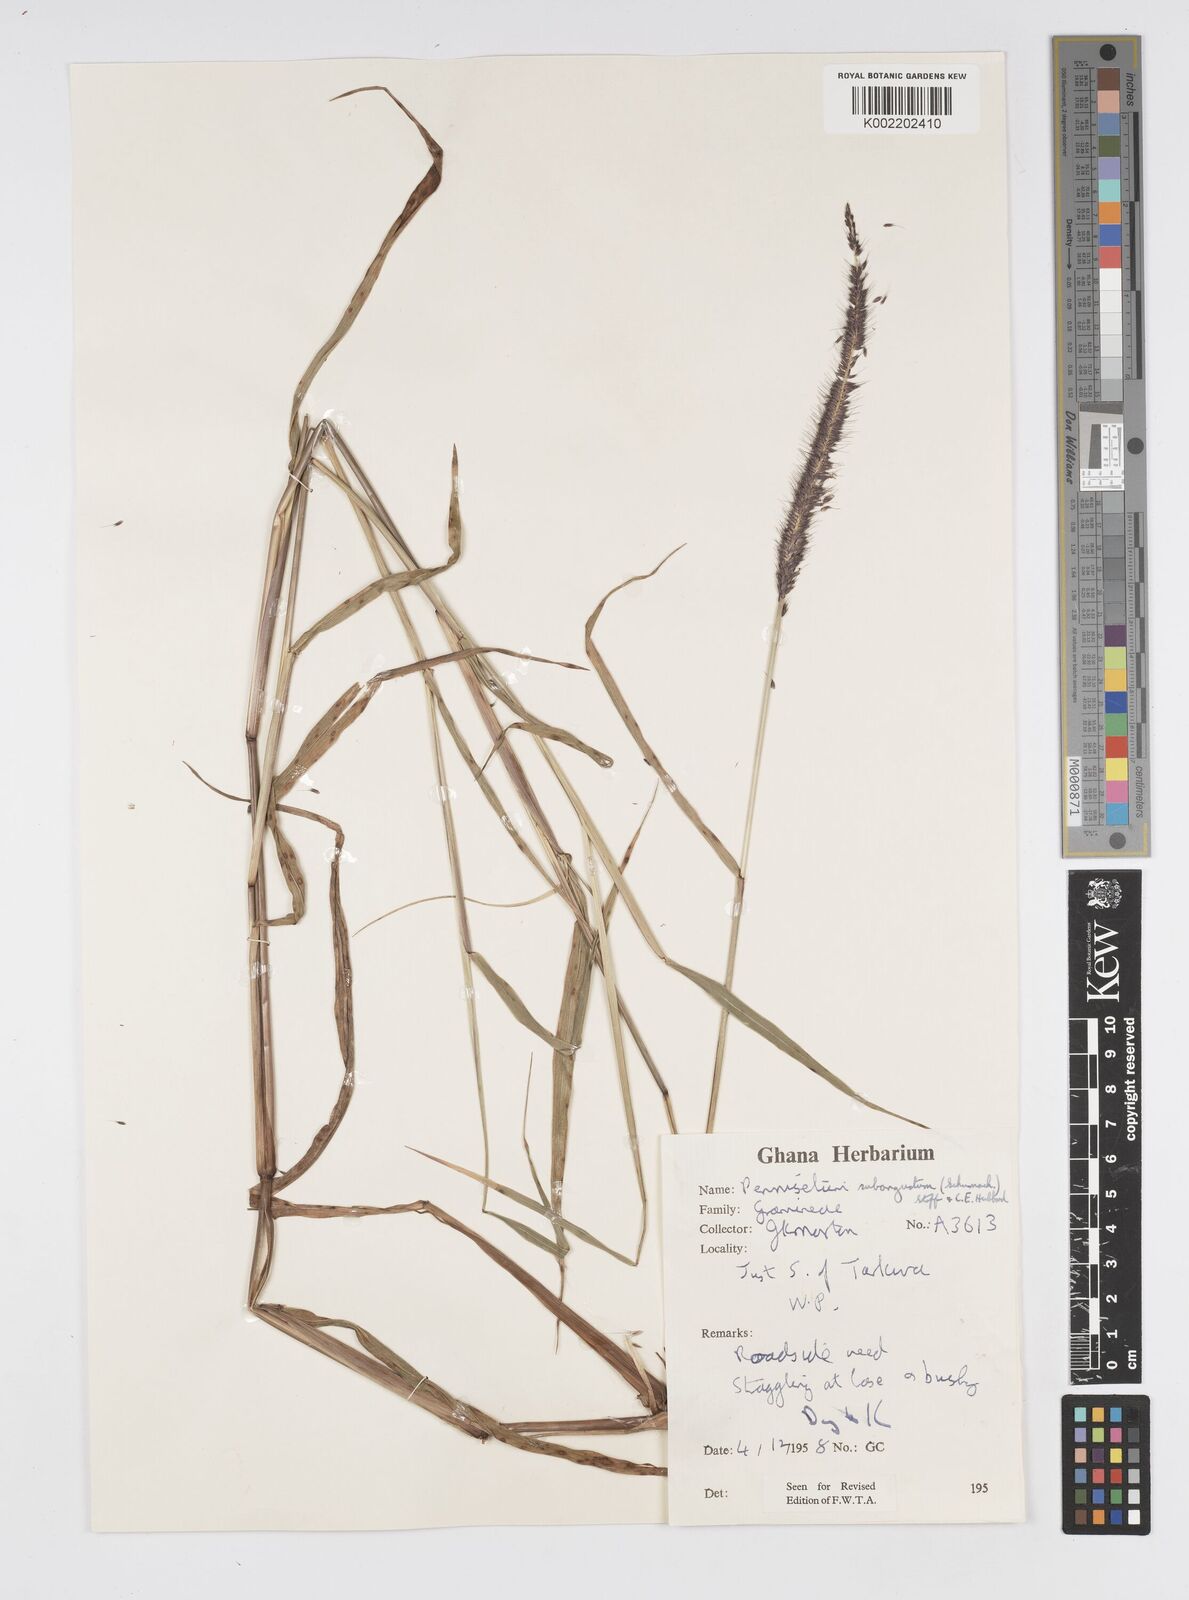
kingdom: Plantae
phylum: Tracheophyta
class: Liliopsida
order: Poales
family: Poaceae
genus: Setaria
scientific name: Setaria parviflora
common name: Knotroot bristle-grass
